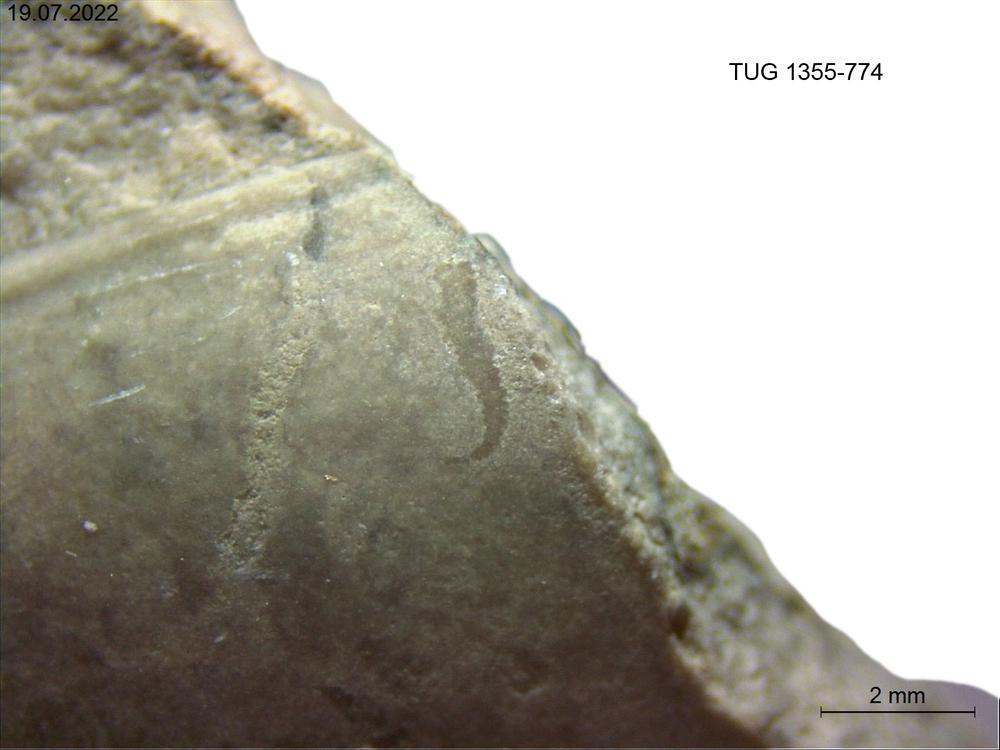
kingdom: Animalia
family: Cornulitidae
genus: Cornulites
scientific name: Cornulites
